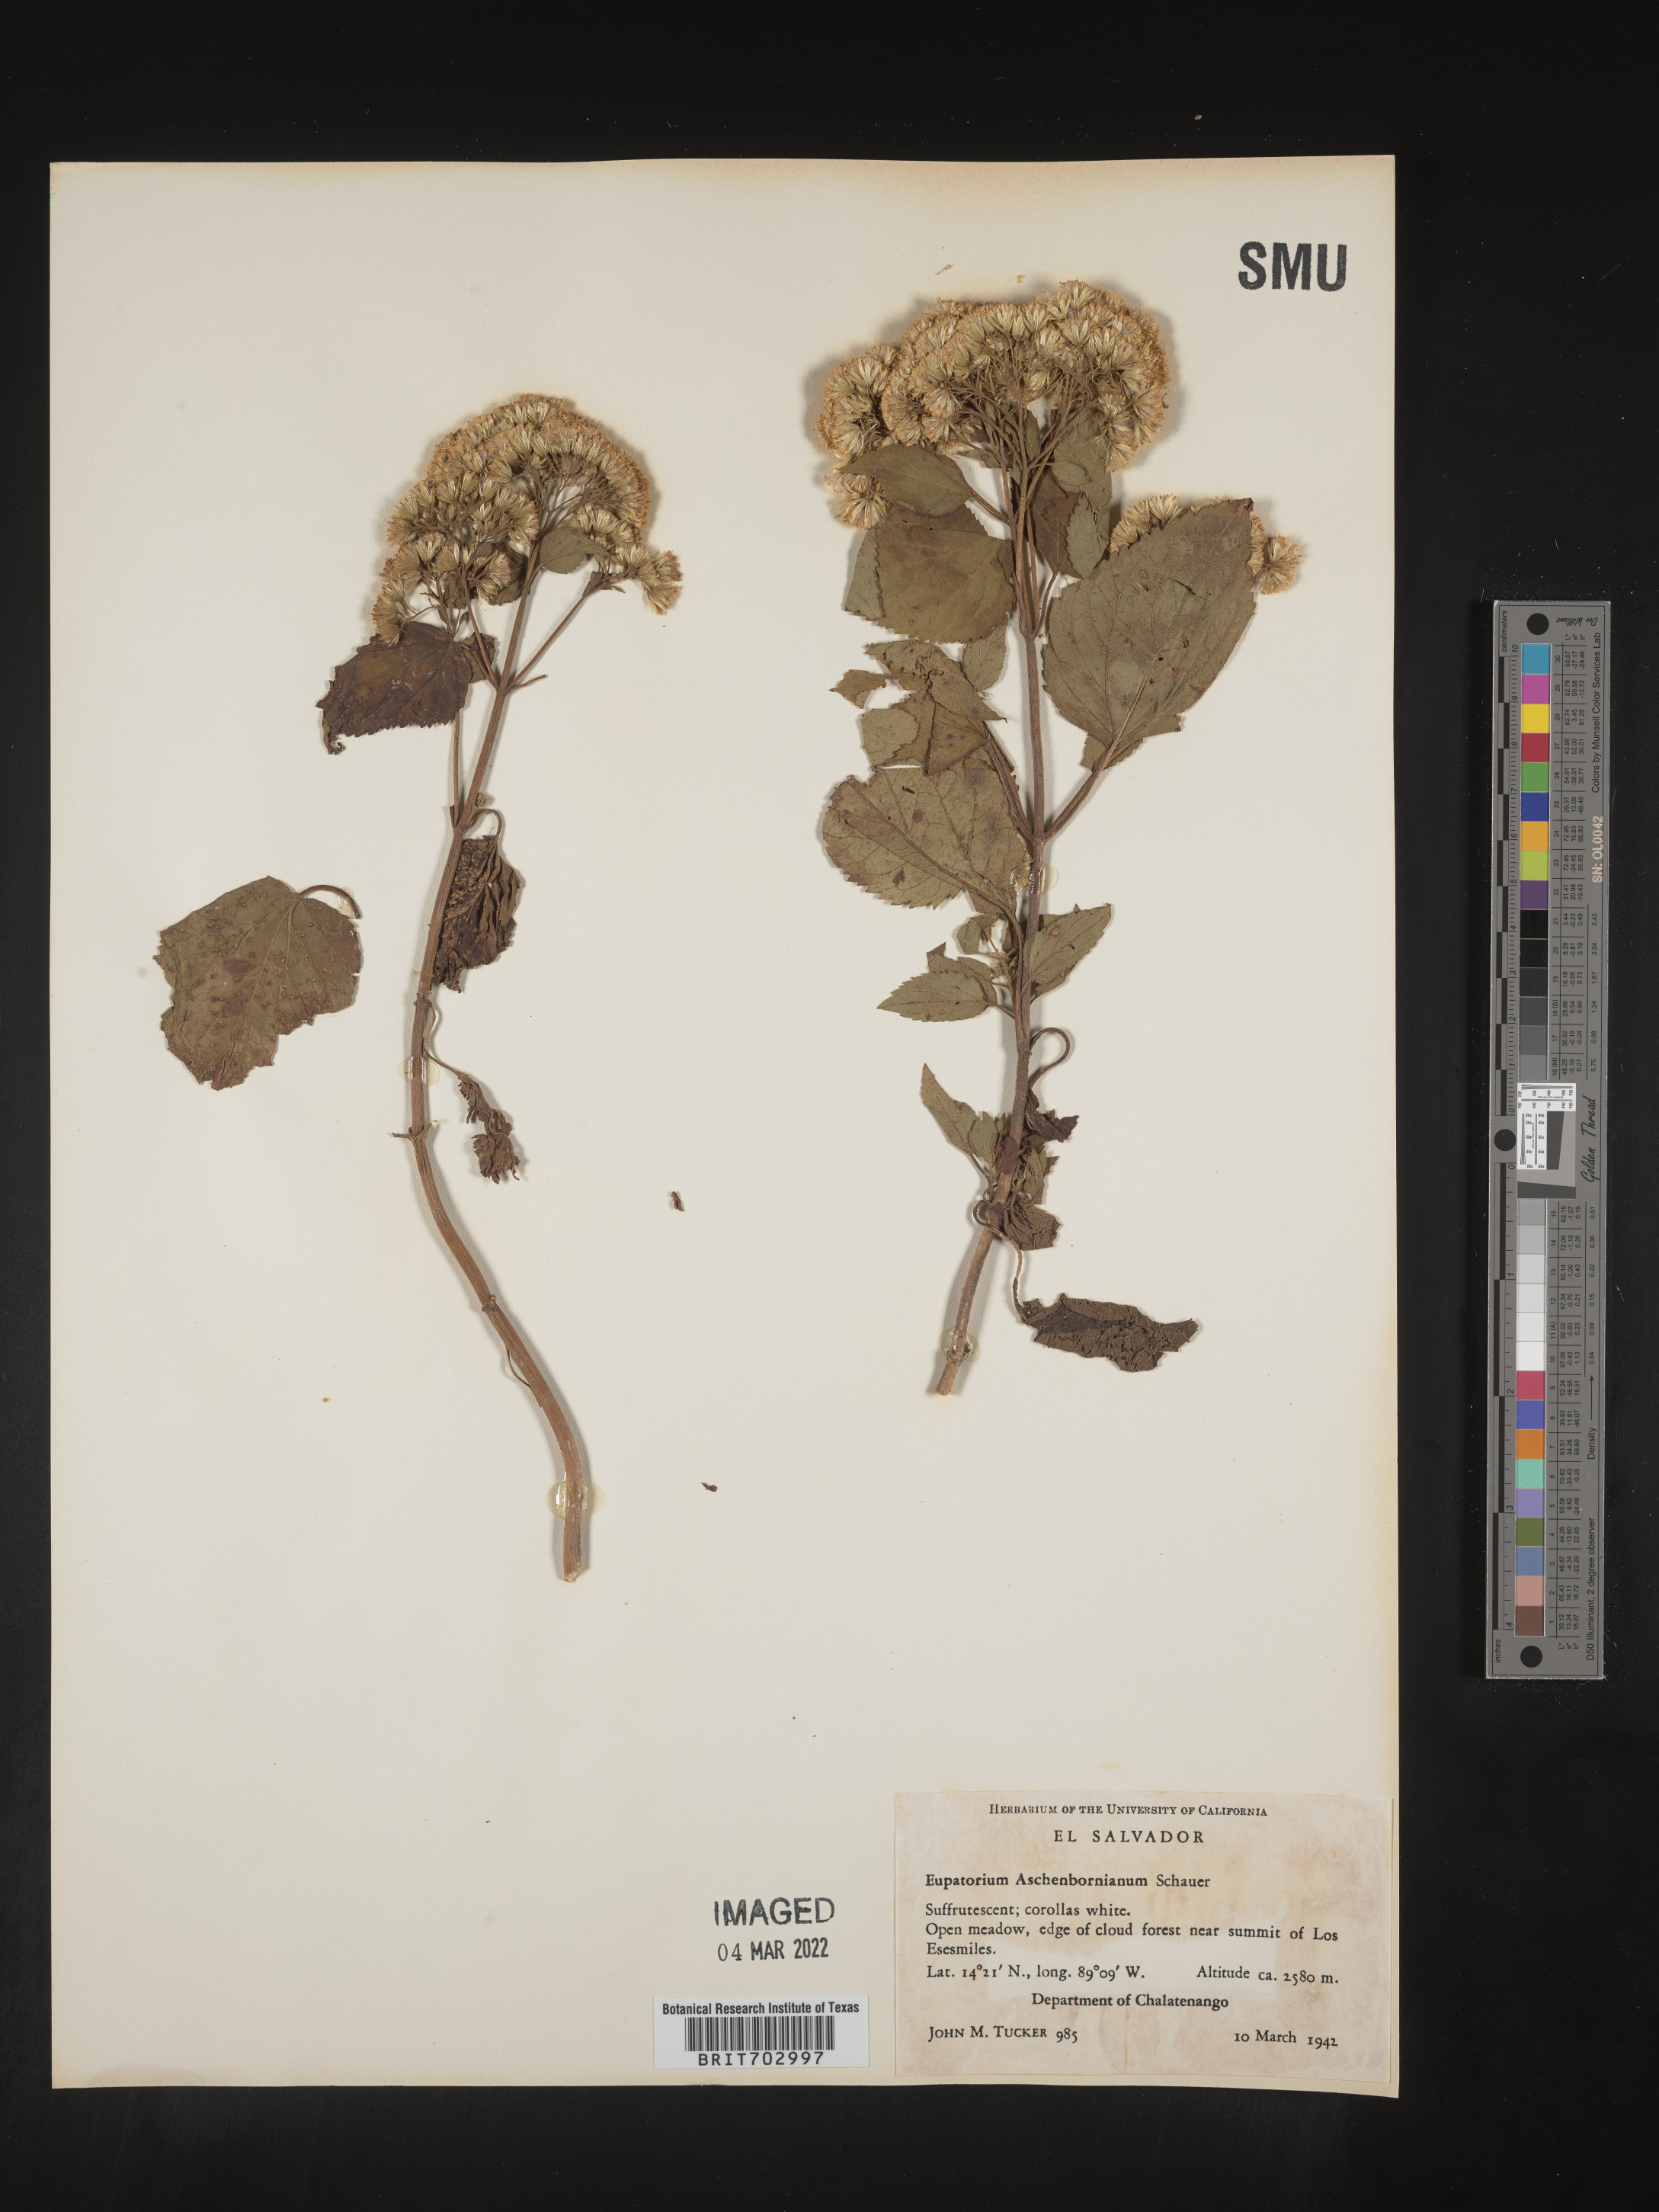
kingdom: Plantae
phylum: Tracheophyta
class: Magnoliopsida
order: Asterales
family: Asteraceae
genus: Eupatorium
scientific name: Eupatorium
